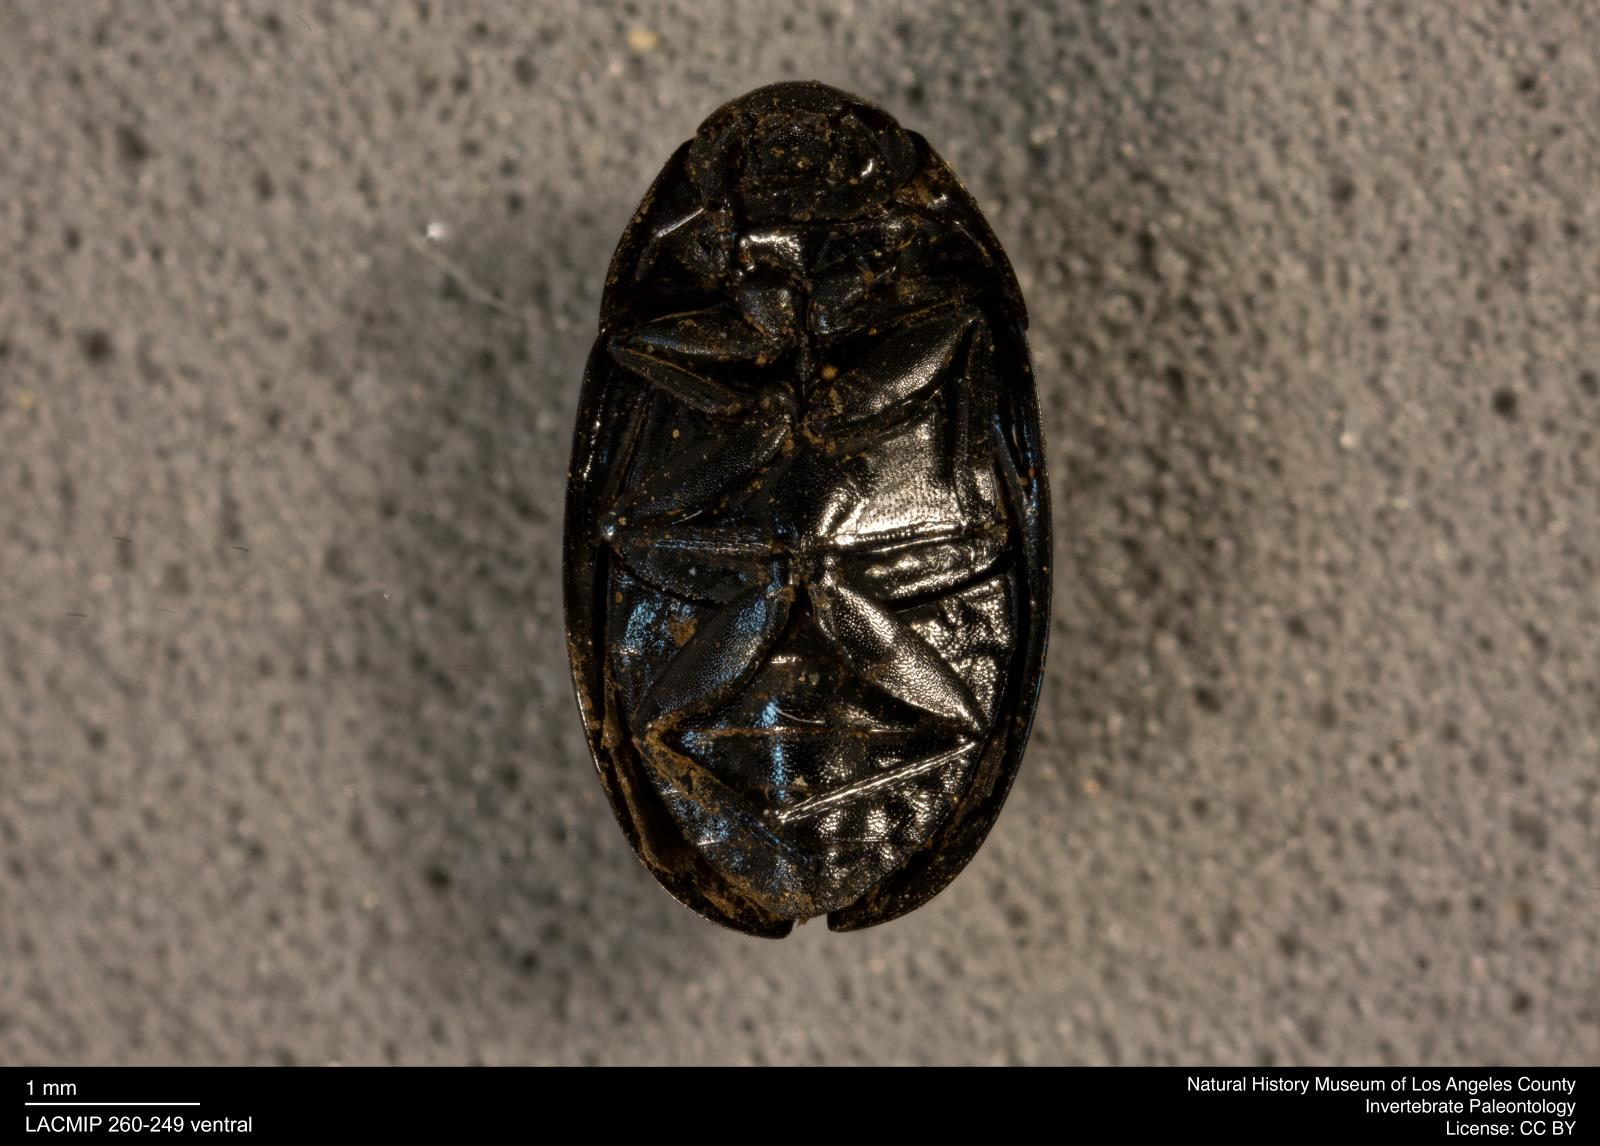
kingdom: Animalia
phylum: Arthropoda
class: Insecta
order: Coleoptera
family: Hydrophilidae
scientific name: Hydrophilidae
